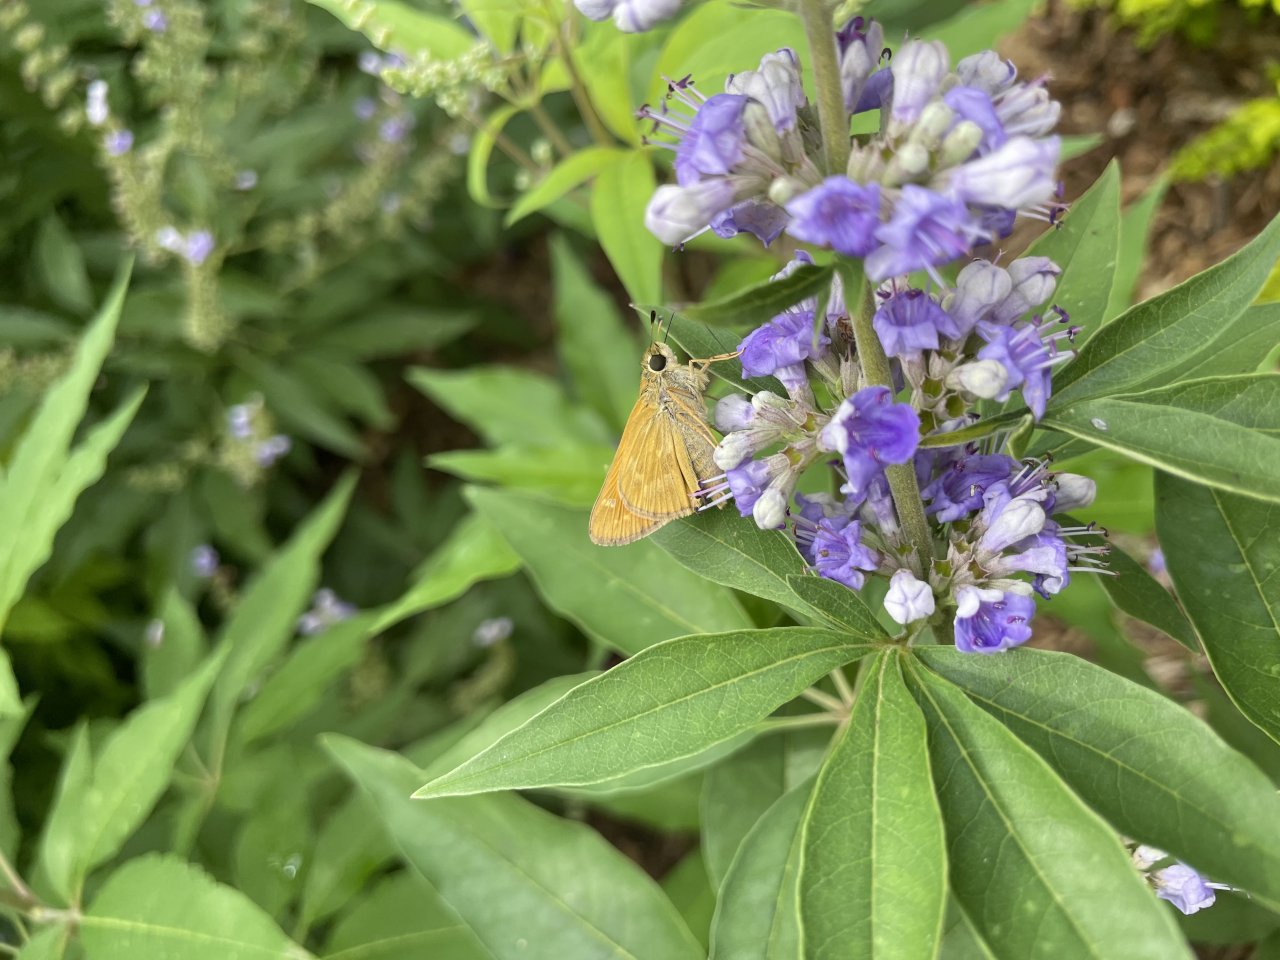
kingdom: Animalia
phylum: Arthropoda
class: Insecta
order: Lepidoptera
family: Hesperiidae
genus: Atalopedes
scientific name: Atalopedes campestris
